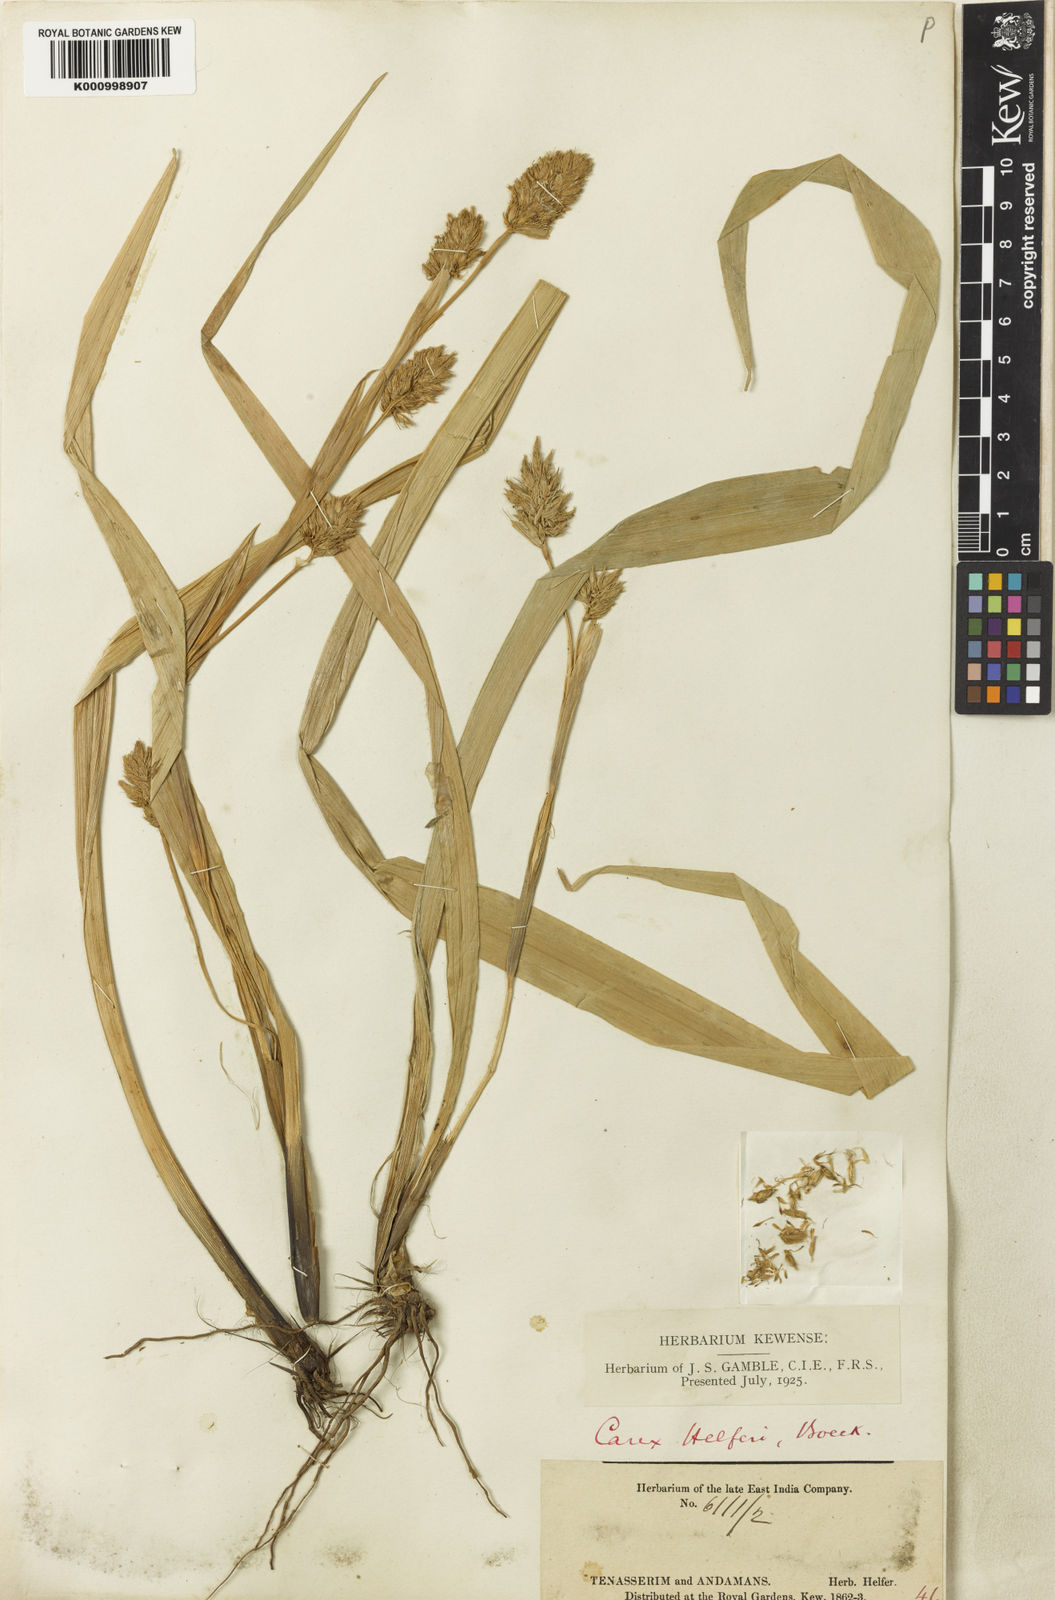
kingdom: Plantae
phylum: Tracheophyta
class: Liliopsida
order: Poales
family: Cyperaceae
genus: Carex
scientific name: Carex helferi
